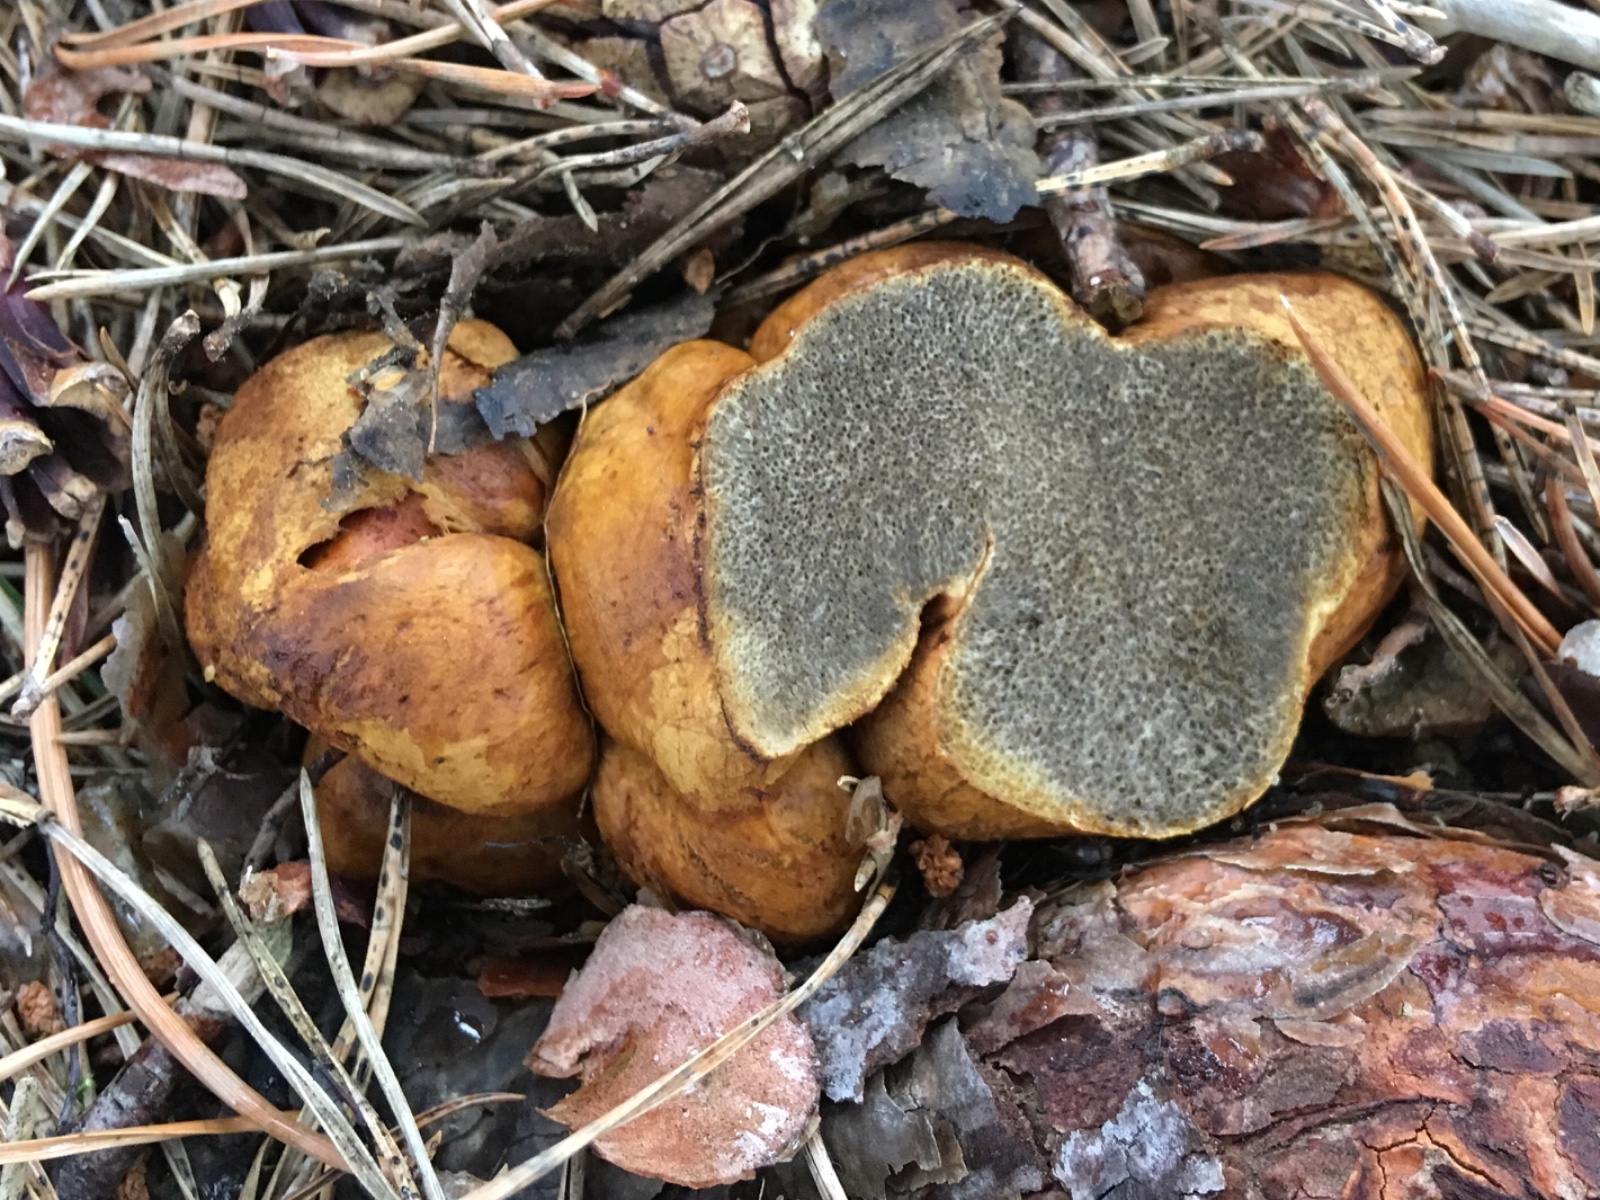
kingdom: Fungi
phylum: Basidiomycota
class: Agaricomycetes
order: Boletales
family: Rhizopogonaceae
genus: Rhizopogon
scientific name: Rhizopogon obtextus
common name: gul skægtrøffel
